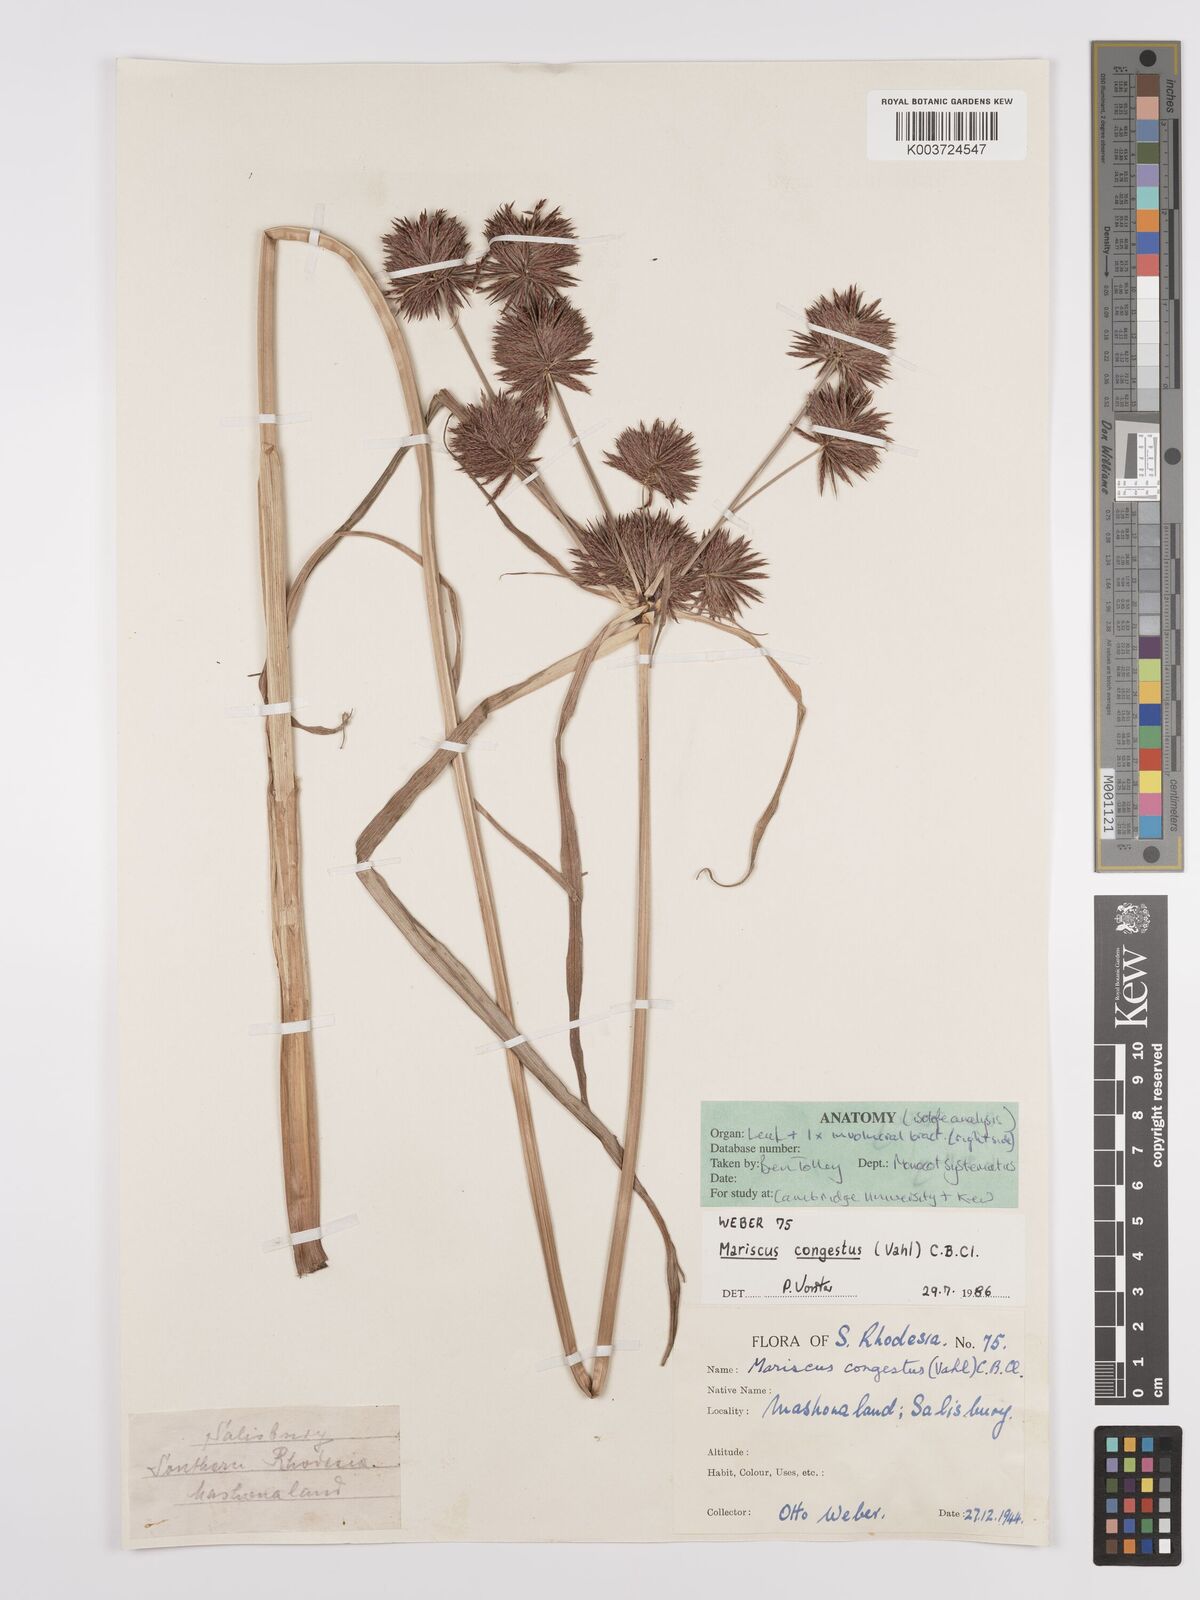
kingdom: Plantae
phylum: Tracheophyta
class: Liliopsida
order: Poales
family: Cyperaceae
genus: Cyperus
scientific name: Cyperus congestus
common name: Dense flat sedge
